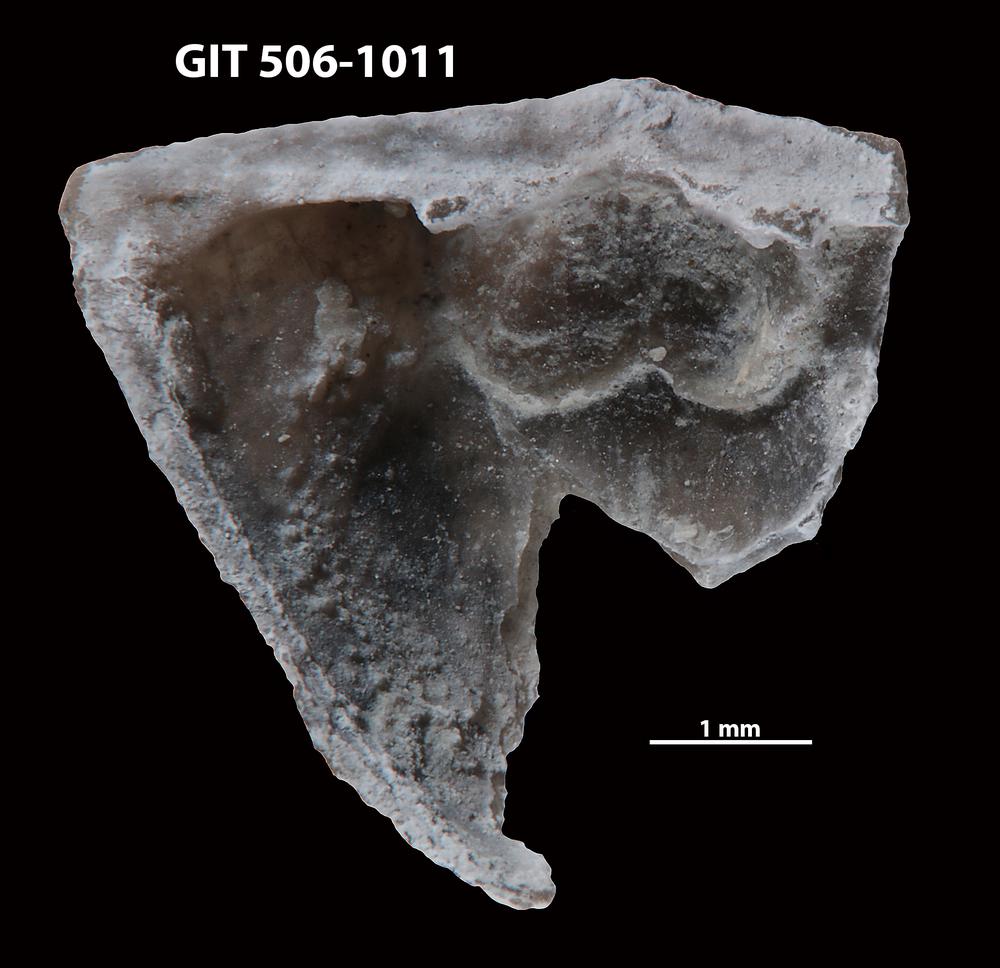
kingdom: Animalia
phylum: Brachiopoda
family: Leptellinidae
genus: Leangella
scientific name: Leangella Plectambonites scissa
